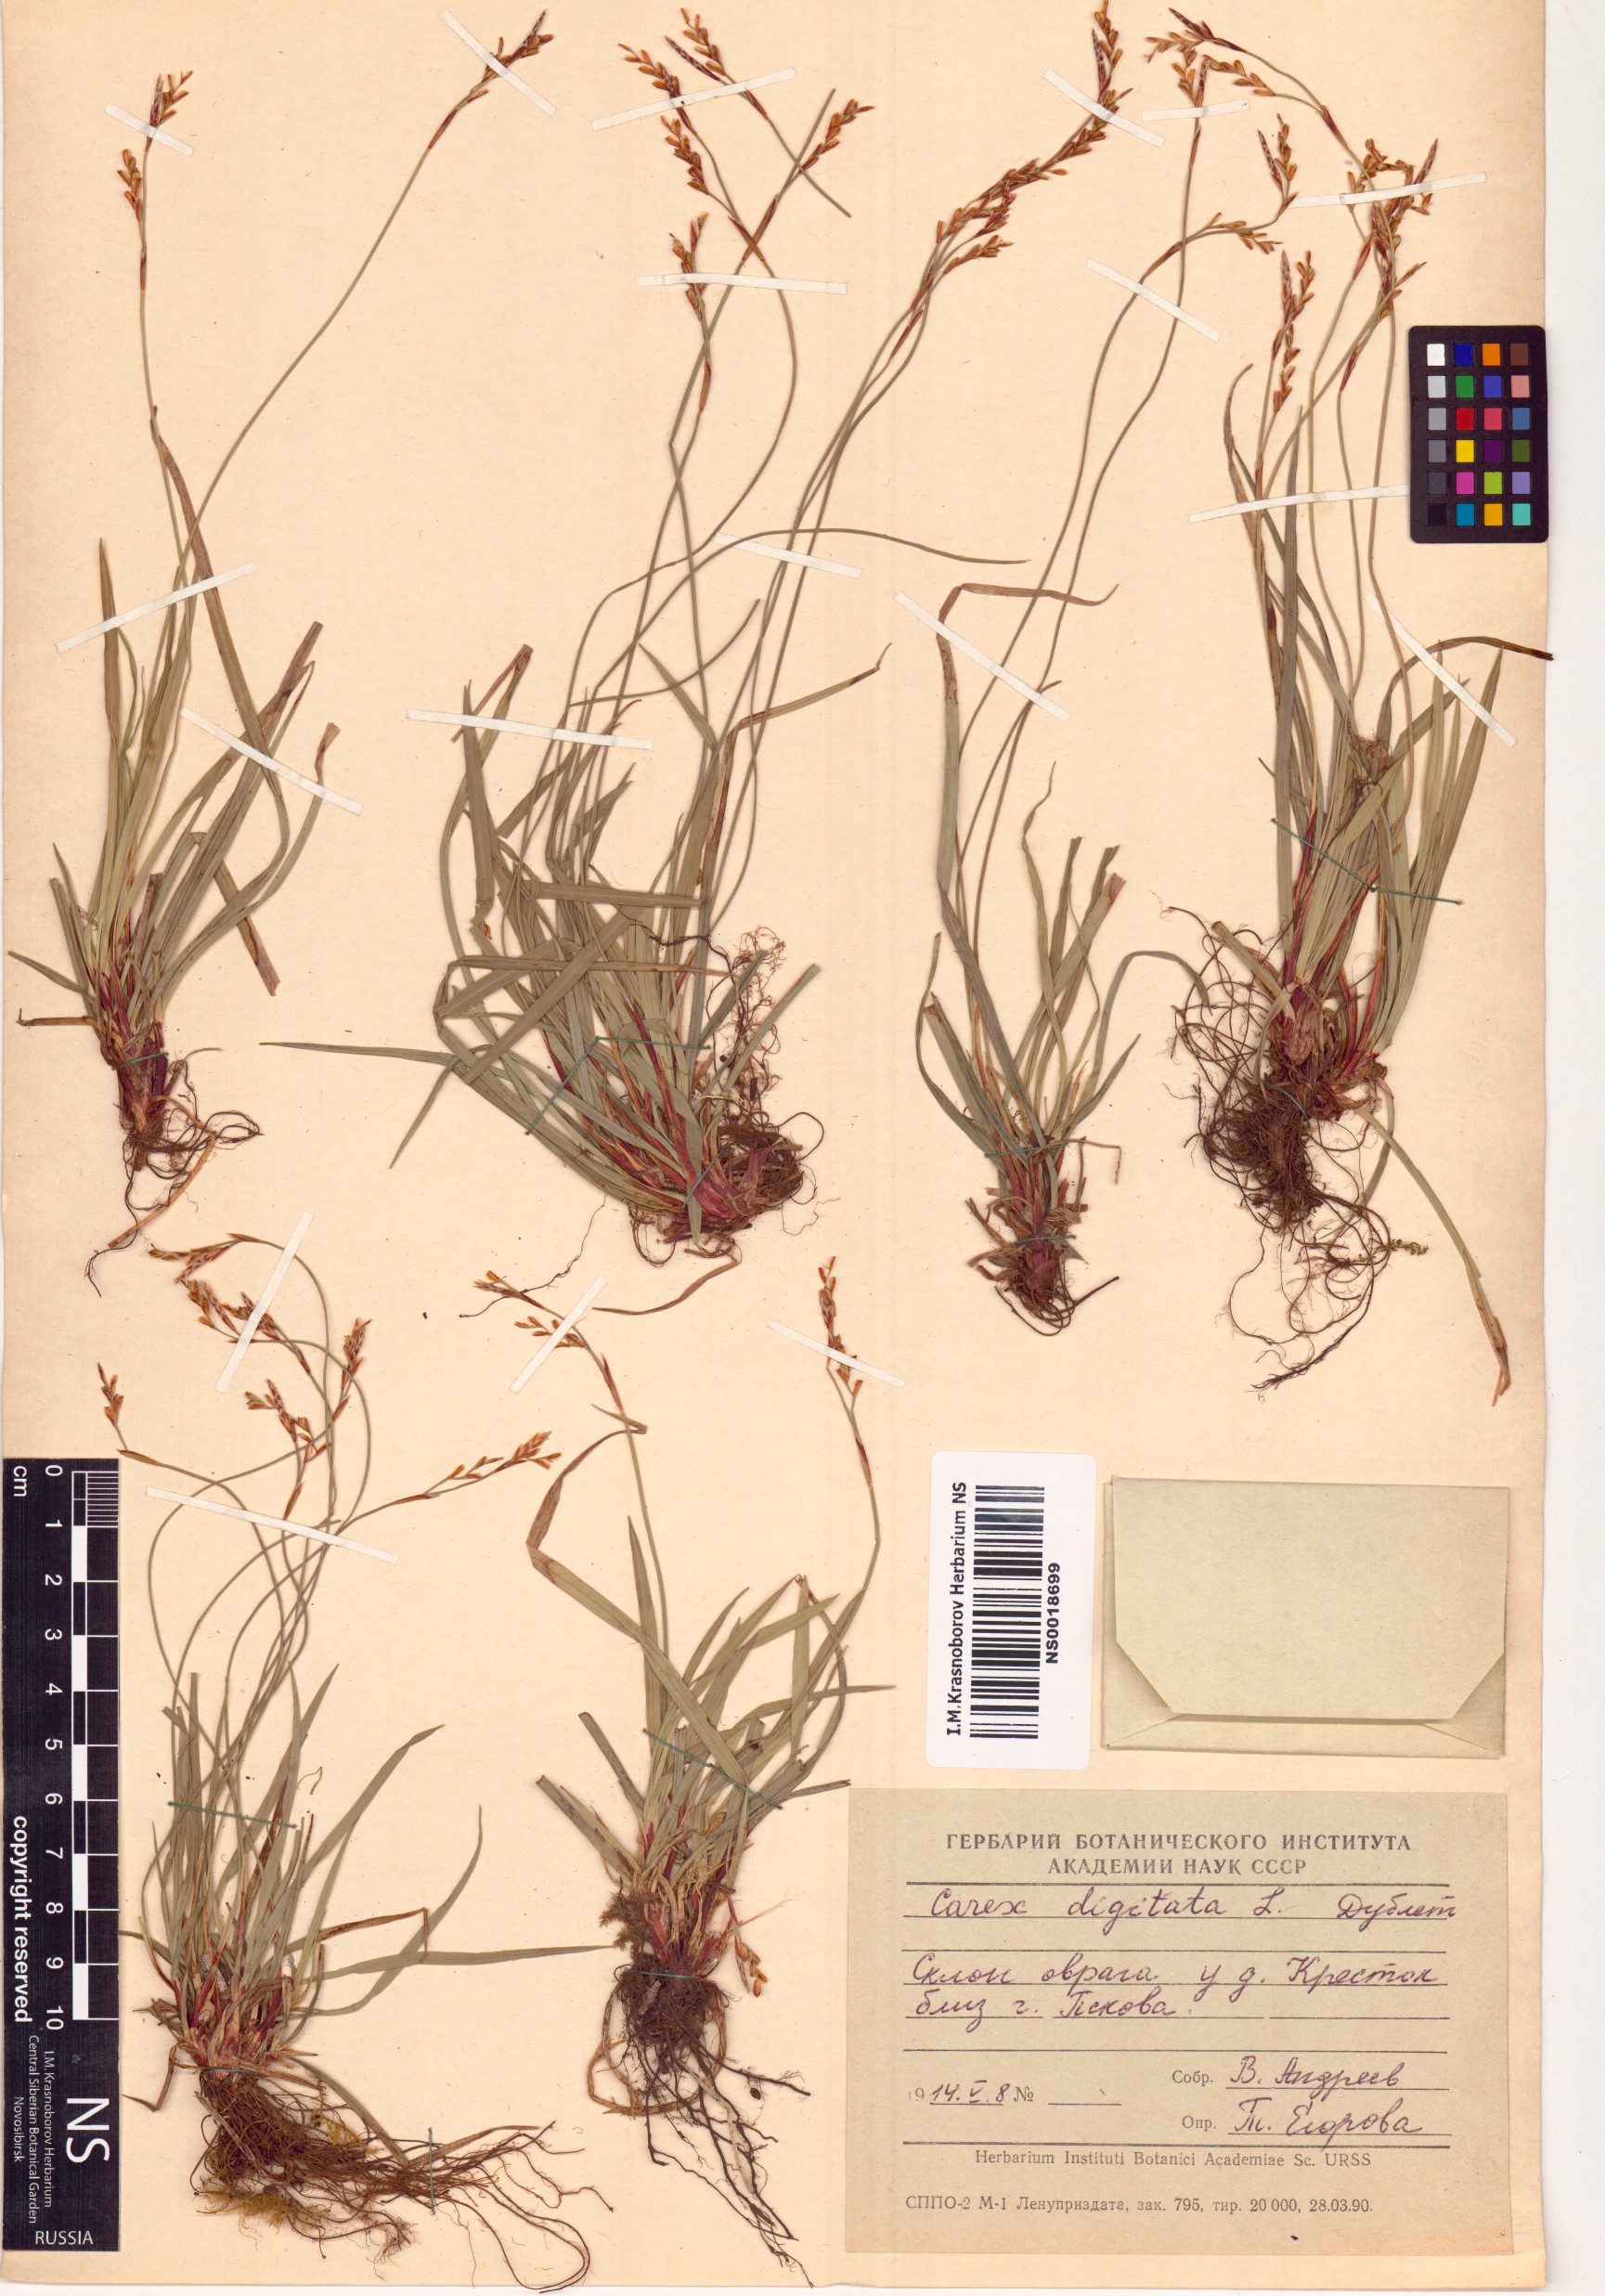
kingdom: Plantae
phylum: Tracheophyta
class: Liliopsida
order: Poales
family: Cyperaceae
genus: Carex
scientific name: Carex digitata
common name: Fingered sedge
